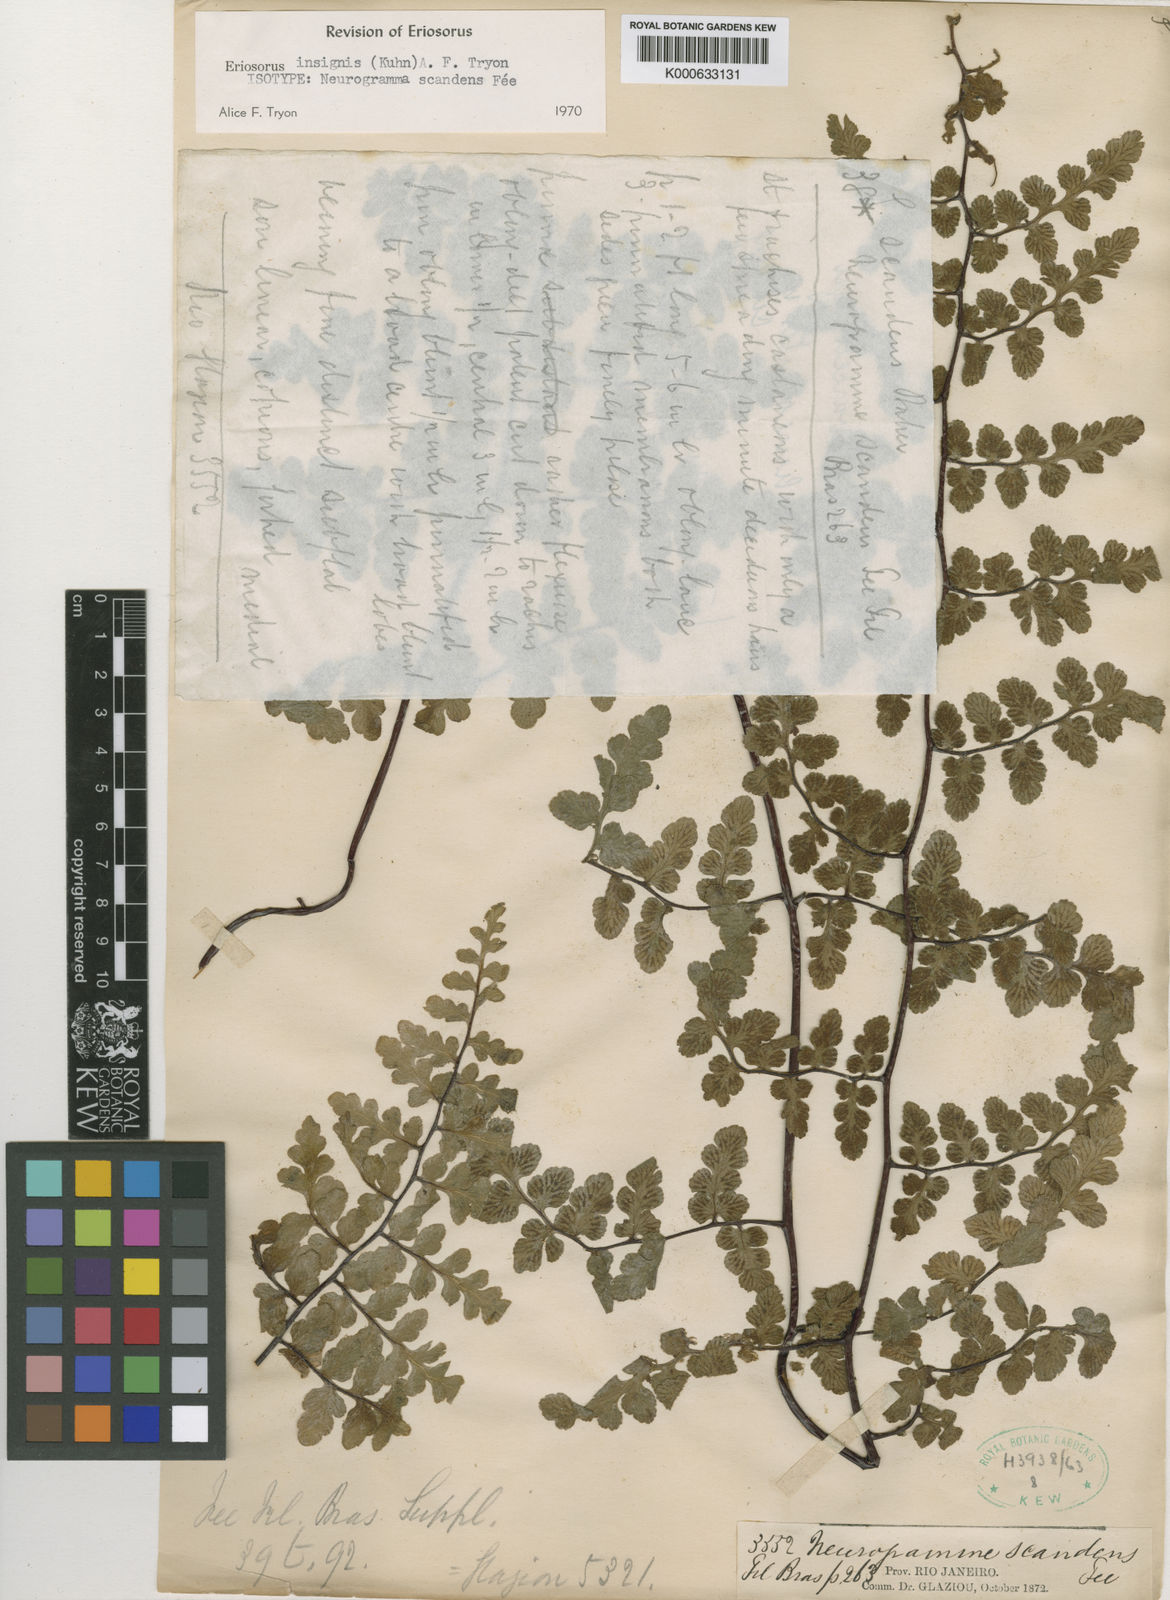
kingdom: Plantae
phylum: Tracheophyta
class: Polypodiopsida
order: Polypodiales
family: Pteridaceae
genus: Jamesonia
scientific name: Jamesonia insignis
